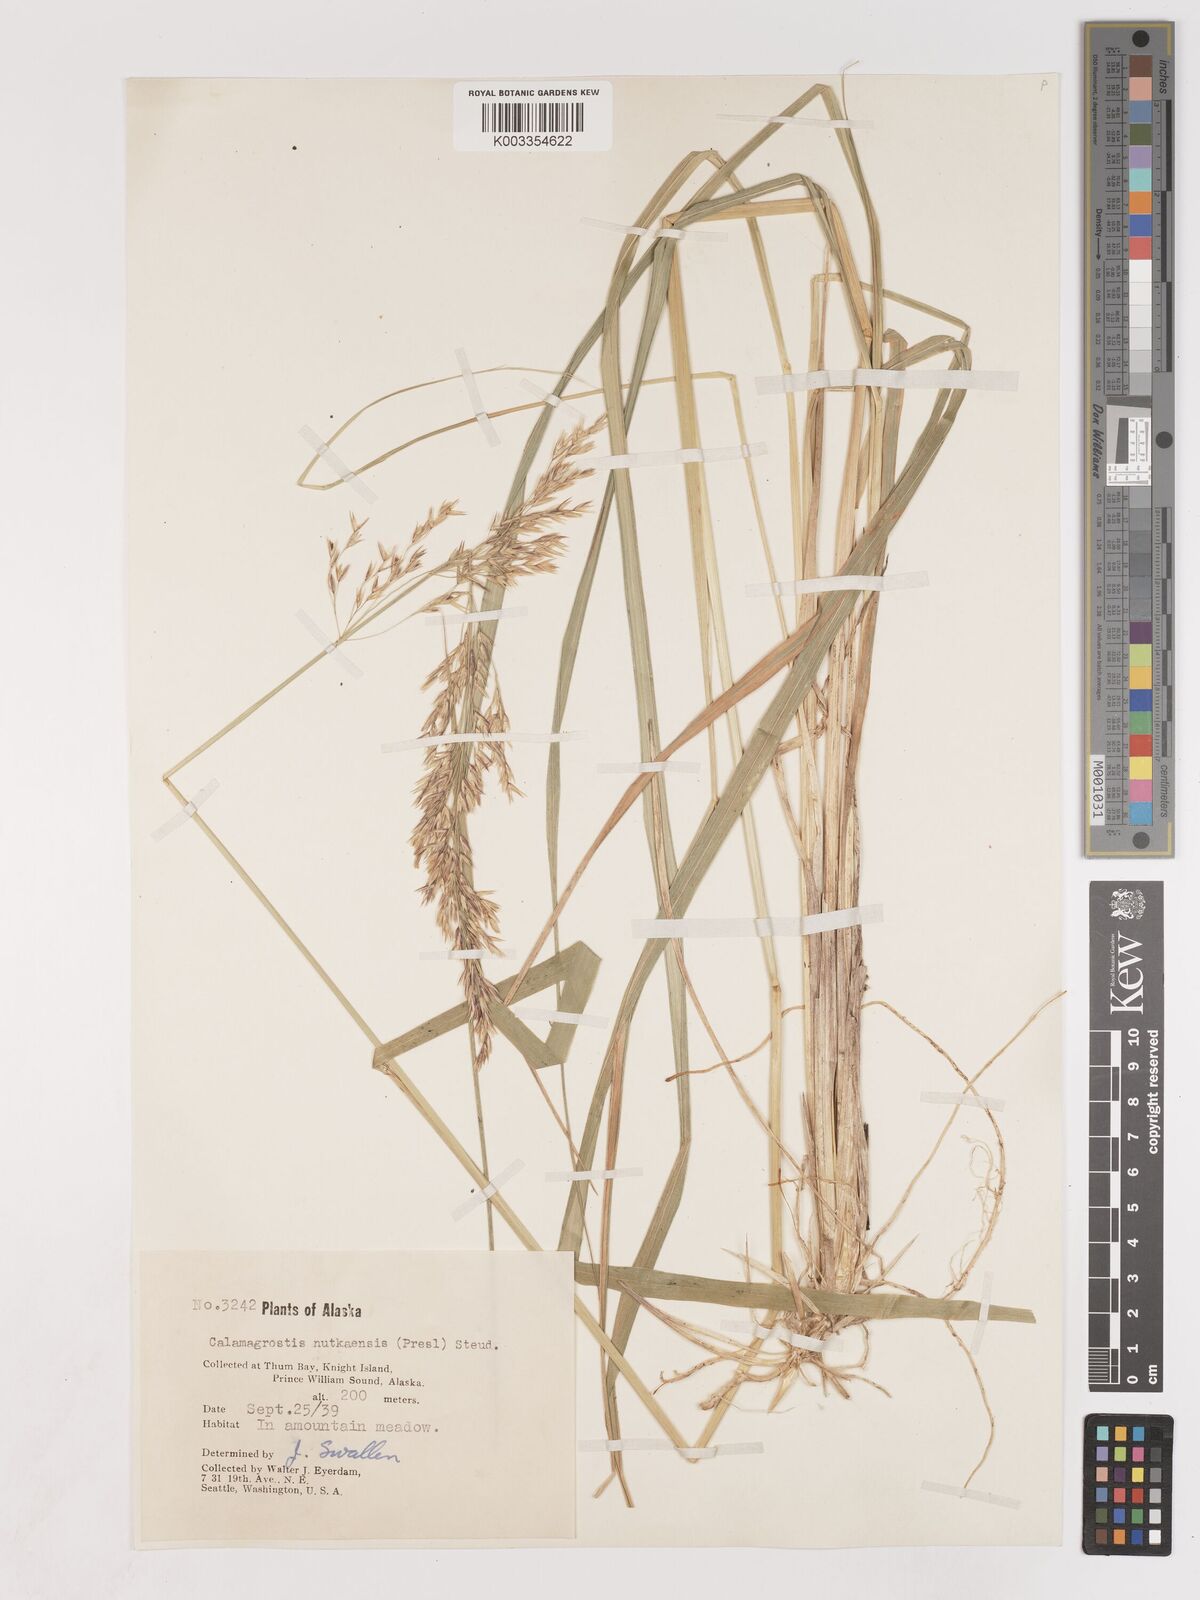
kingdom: Plantae
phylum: Tracheophyta
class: Liliopsida
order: Poales
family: Poaceae
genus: Calamagrostis
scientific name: Calamagrostis nutkaensis
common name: Pacific reed grass
